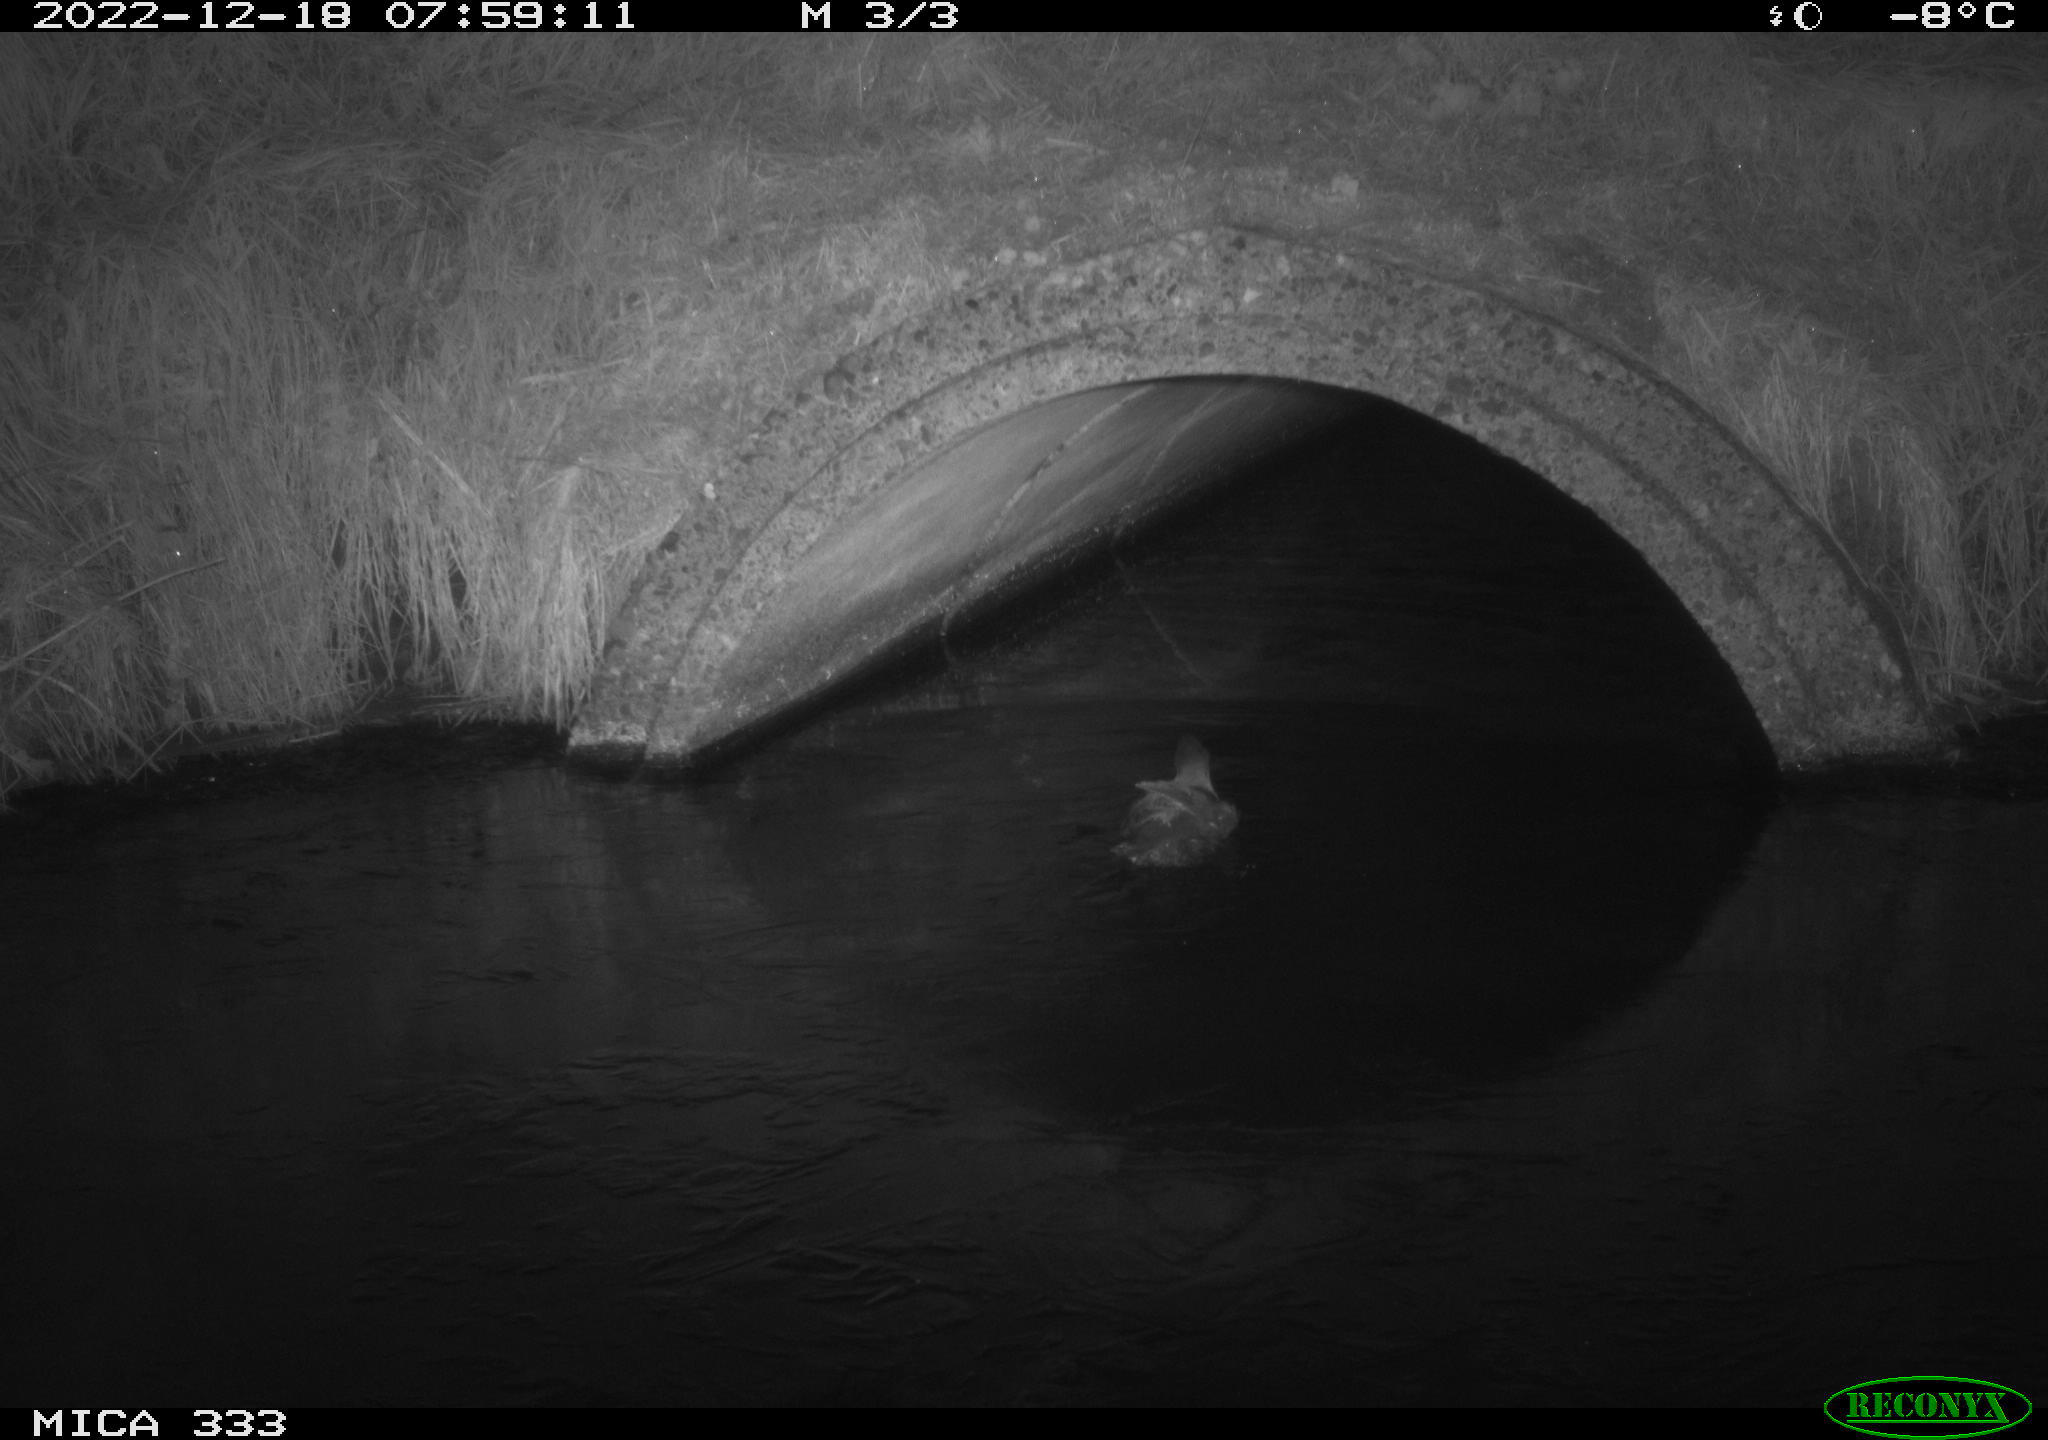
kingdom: Animalia
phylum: Chordata
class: Aves
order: Gruiformes
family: Rallidae
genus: Gallinula
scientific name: Gallinula chloropus
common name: Common moorhen
